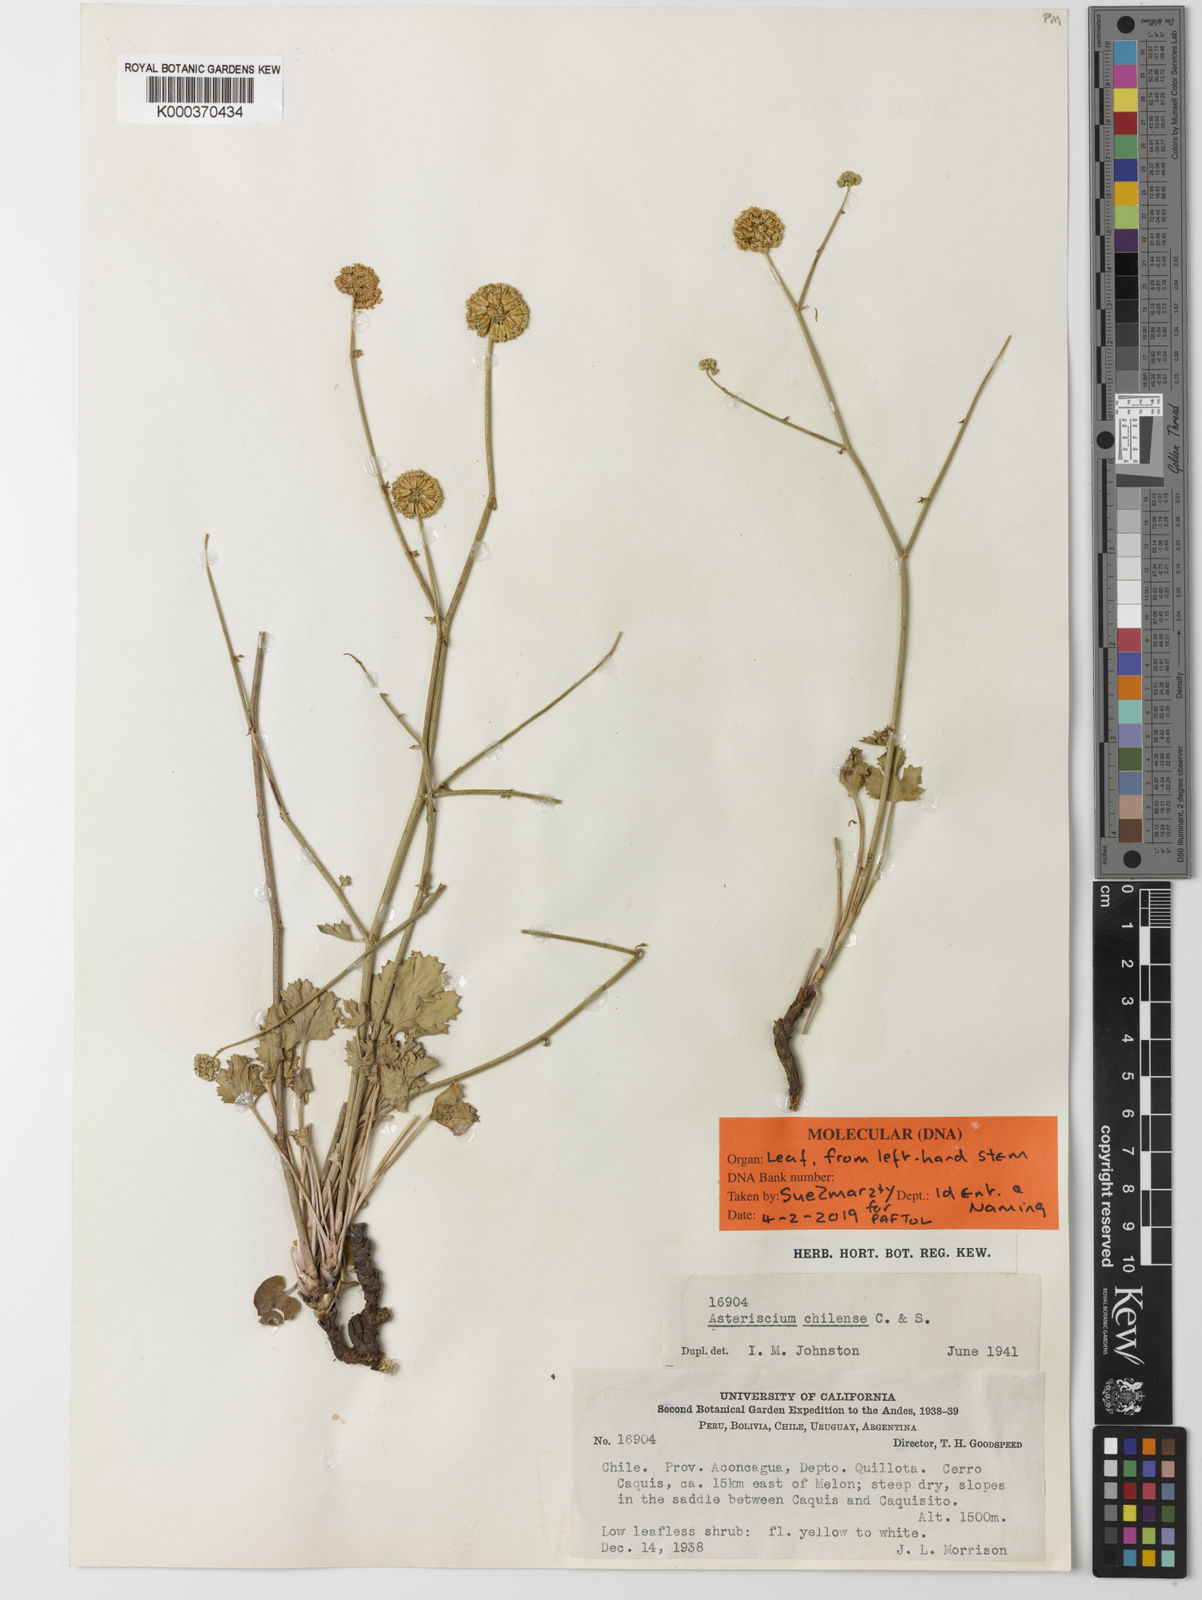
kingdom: Plantae
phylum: Tracheophyta
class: Magnoliopsida
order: Apiales
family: Apiaceae
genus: Asteriscium
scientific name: Asteriscium chilense
